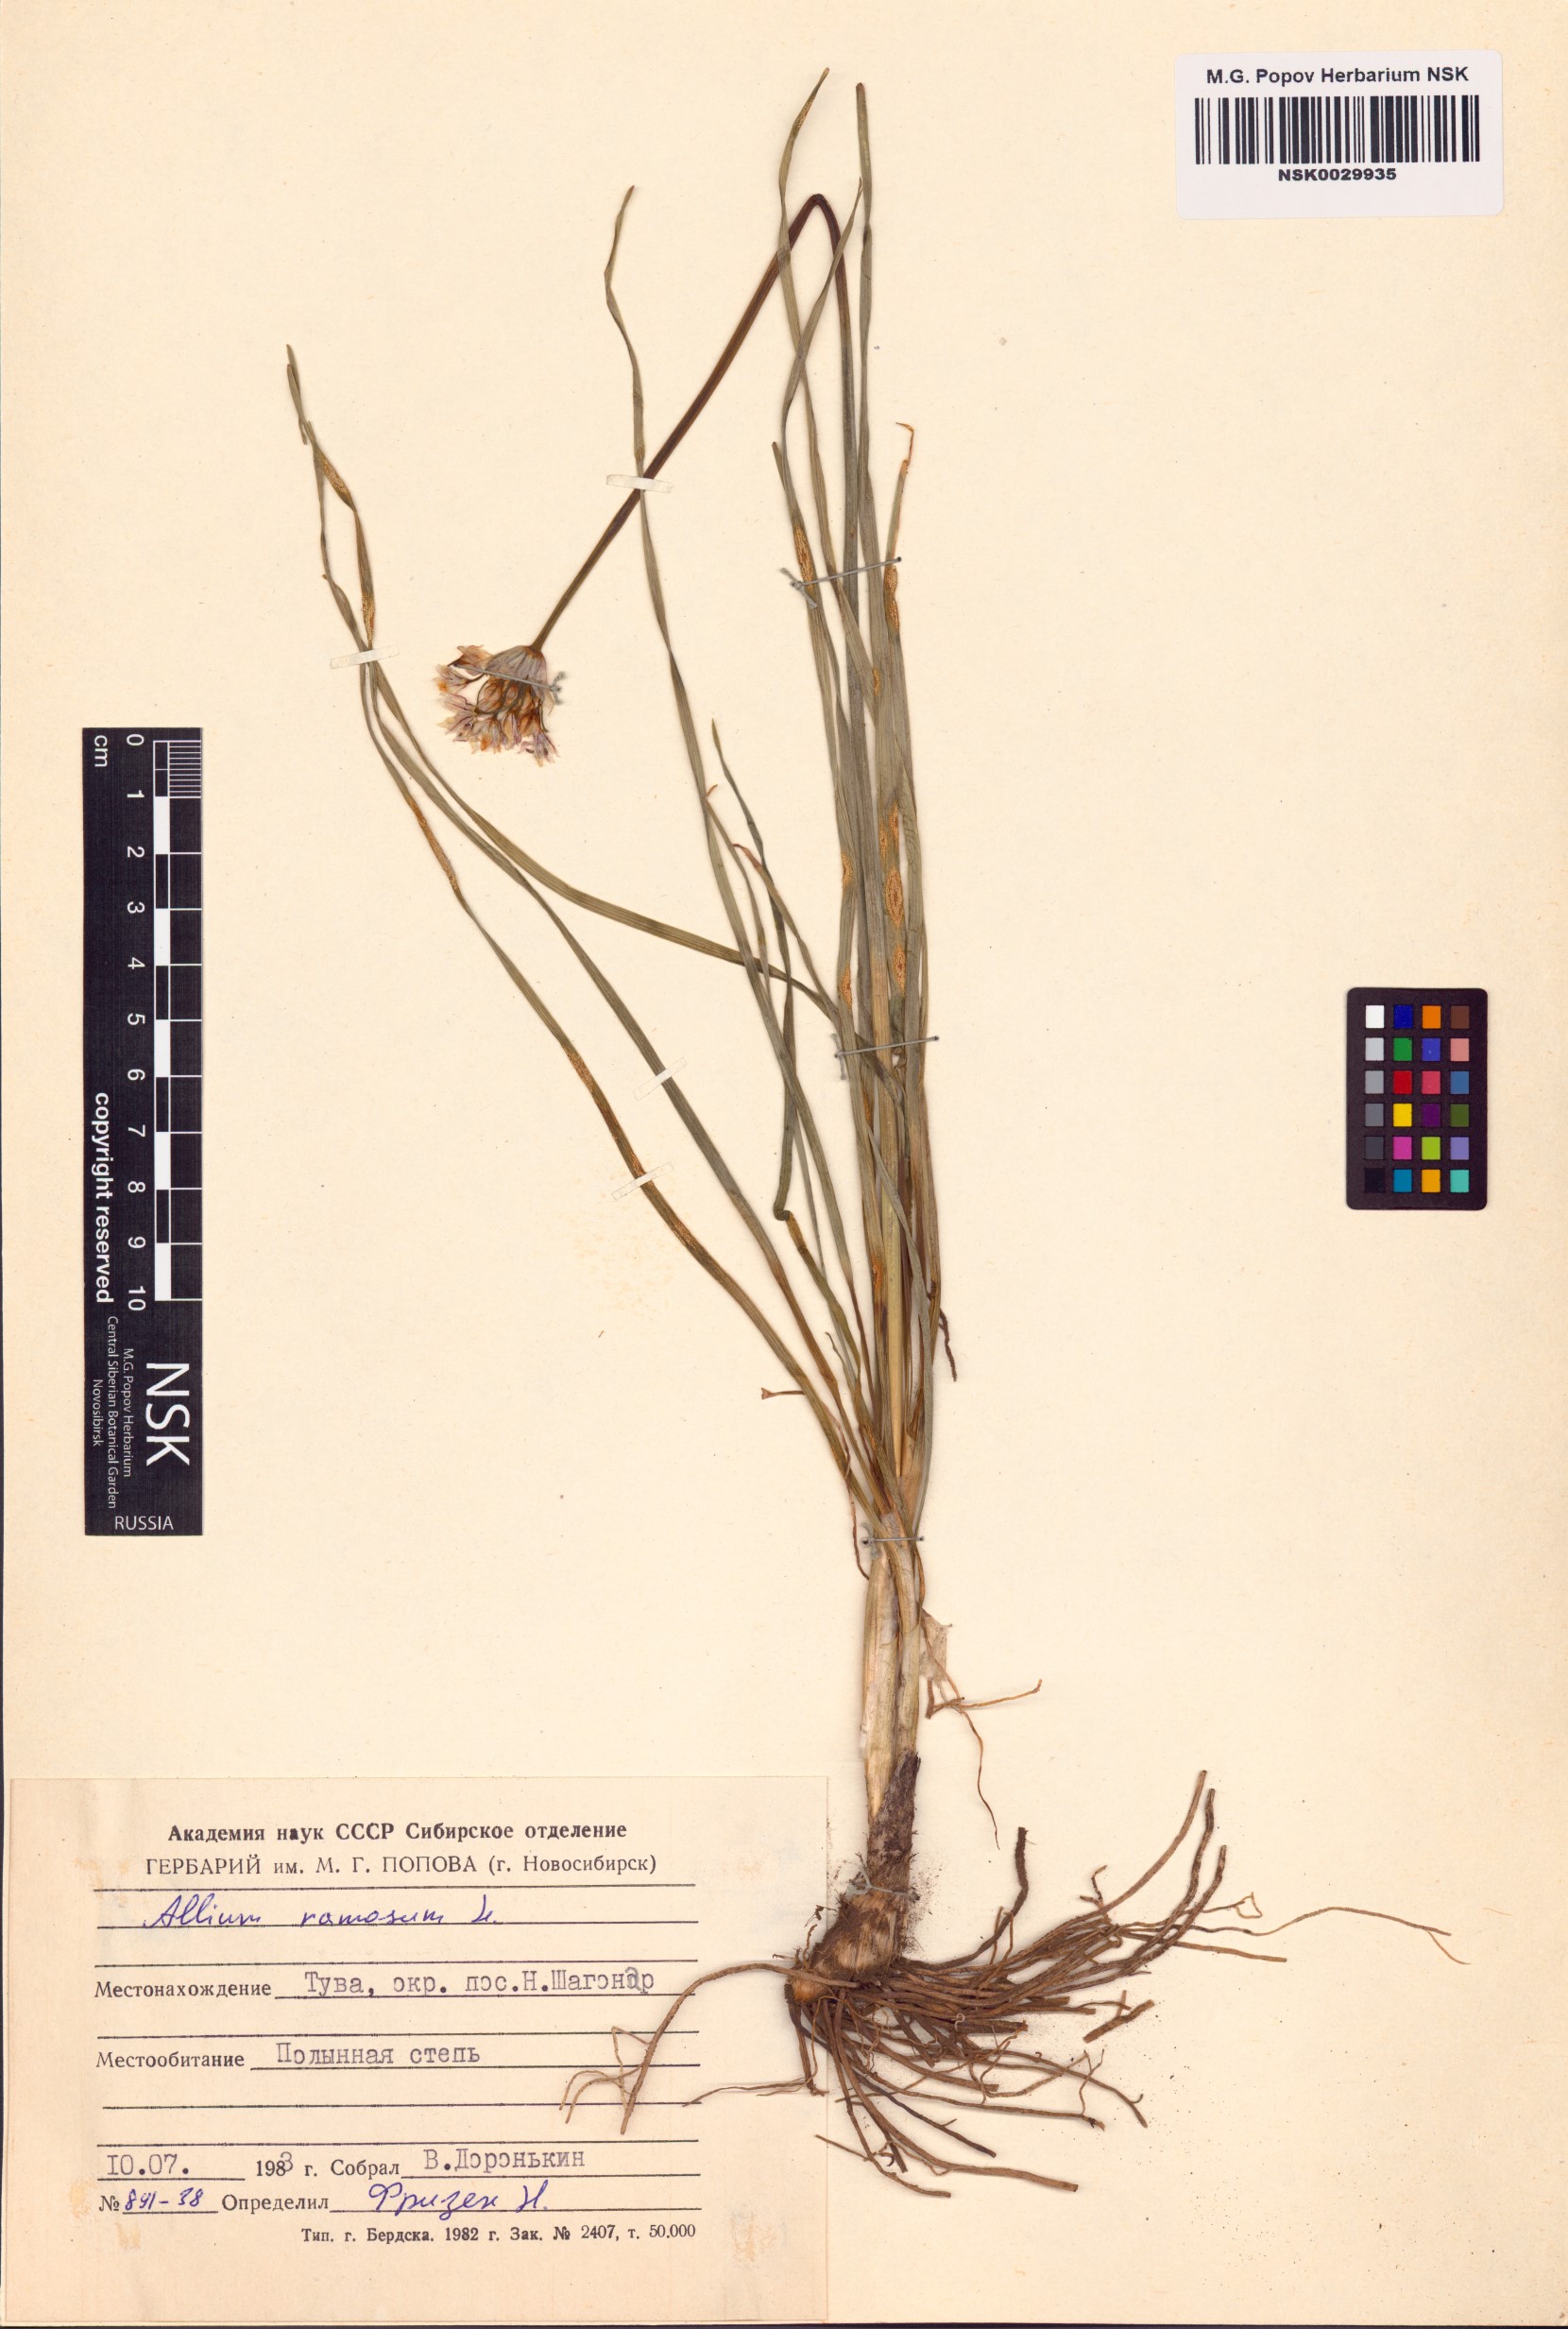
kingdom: Plantae
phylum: Tracheophyta
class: Liliopsida
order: Asparagales
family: Amaryllidaceae
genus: Allium
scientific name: Allium ramosum
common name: Fragrant garlic
